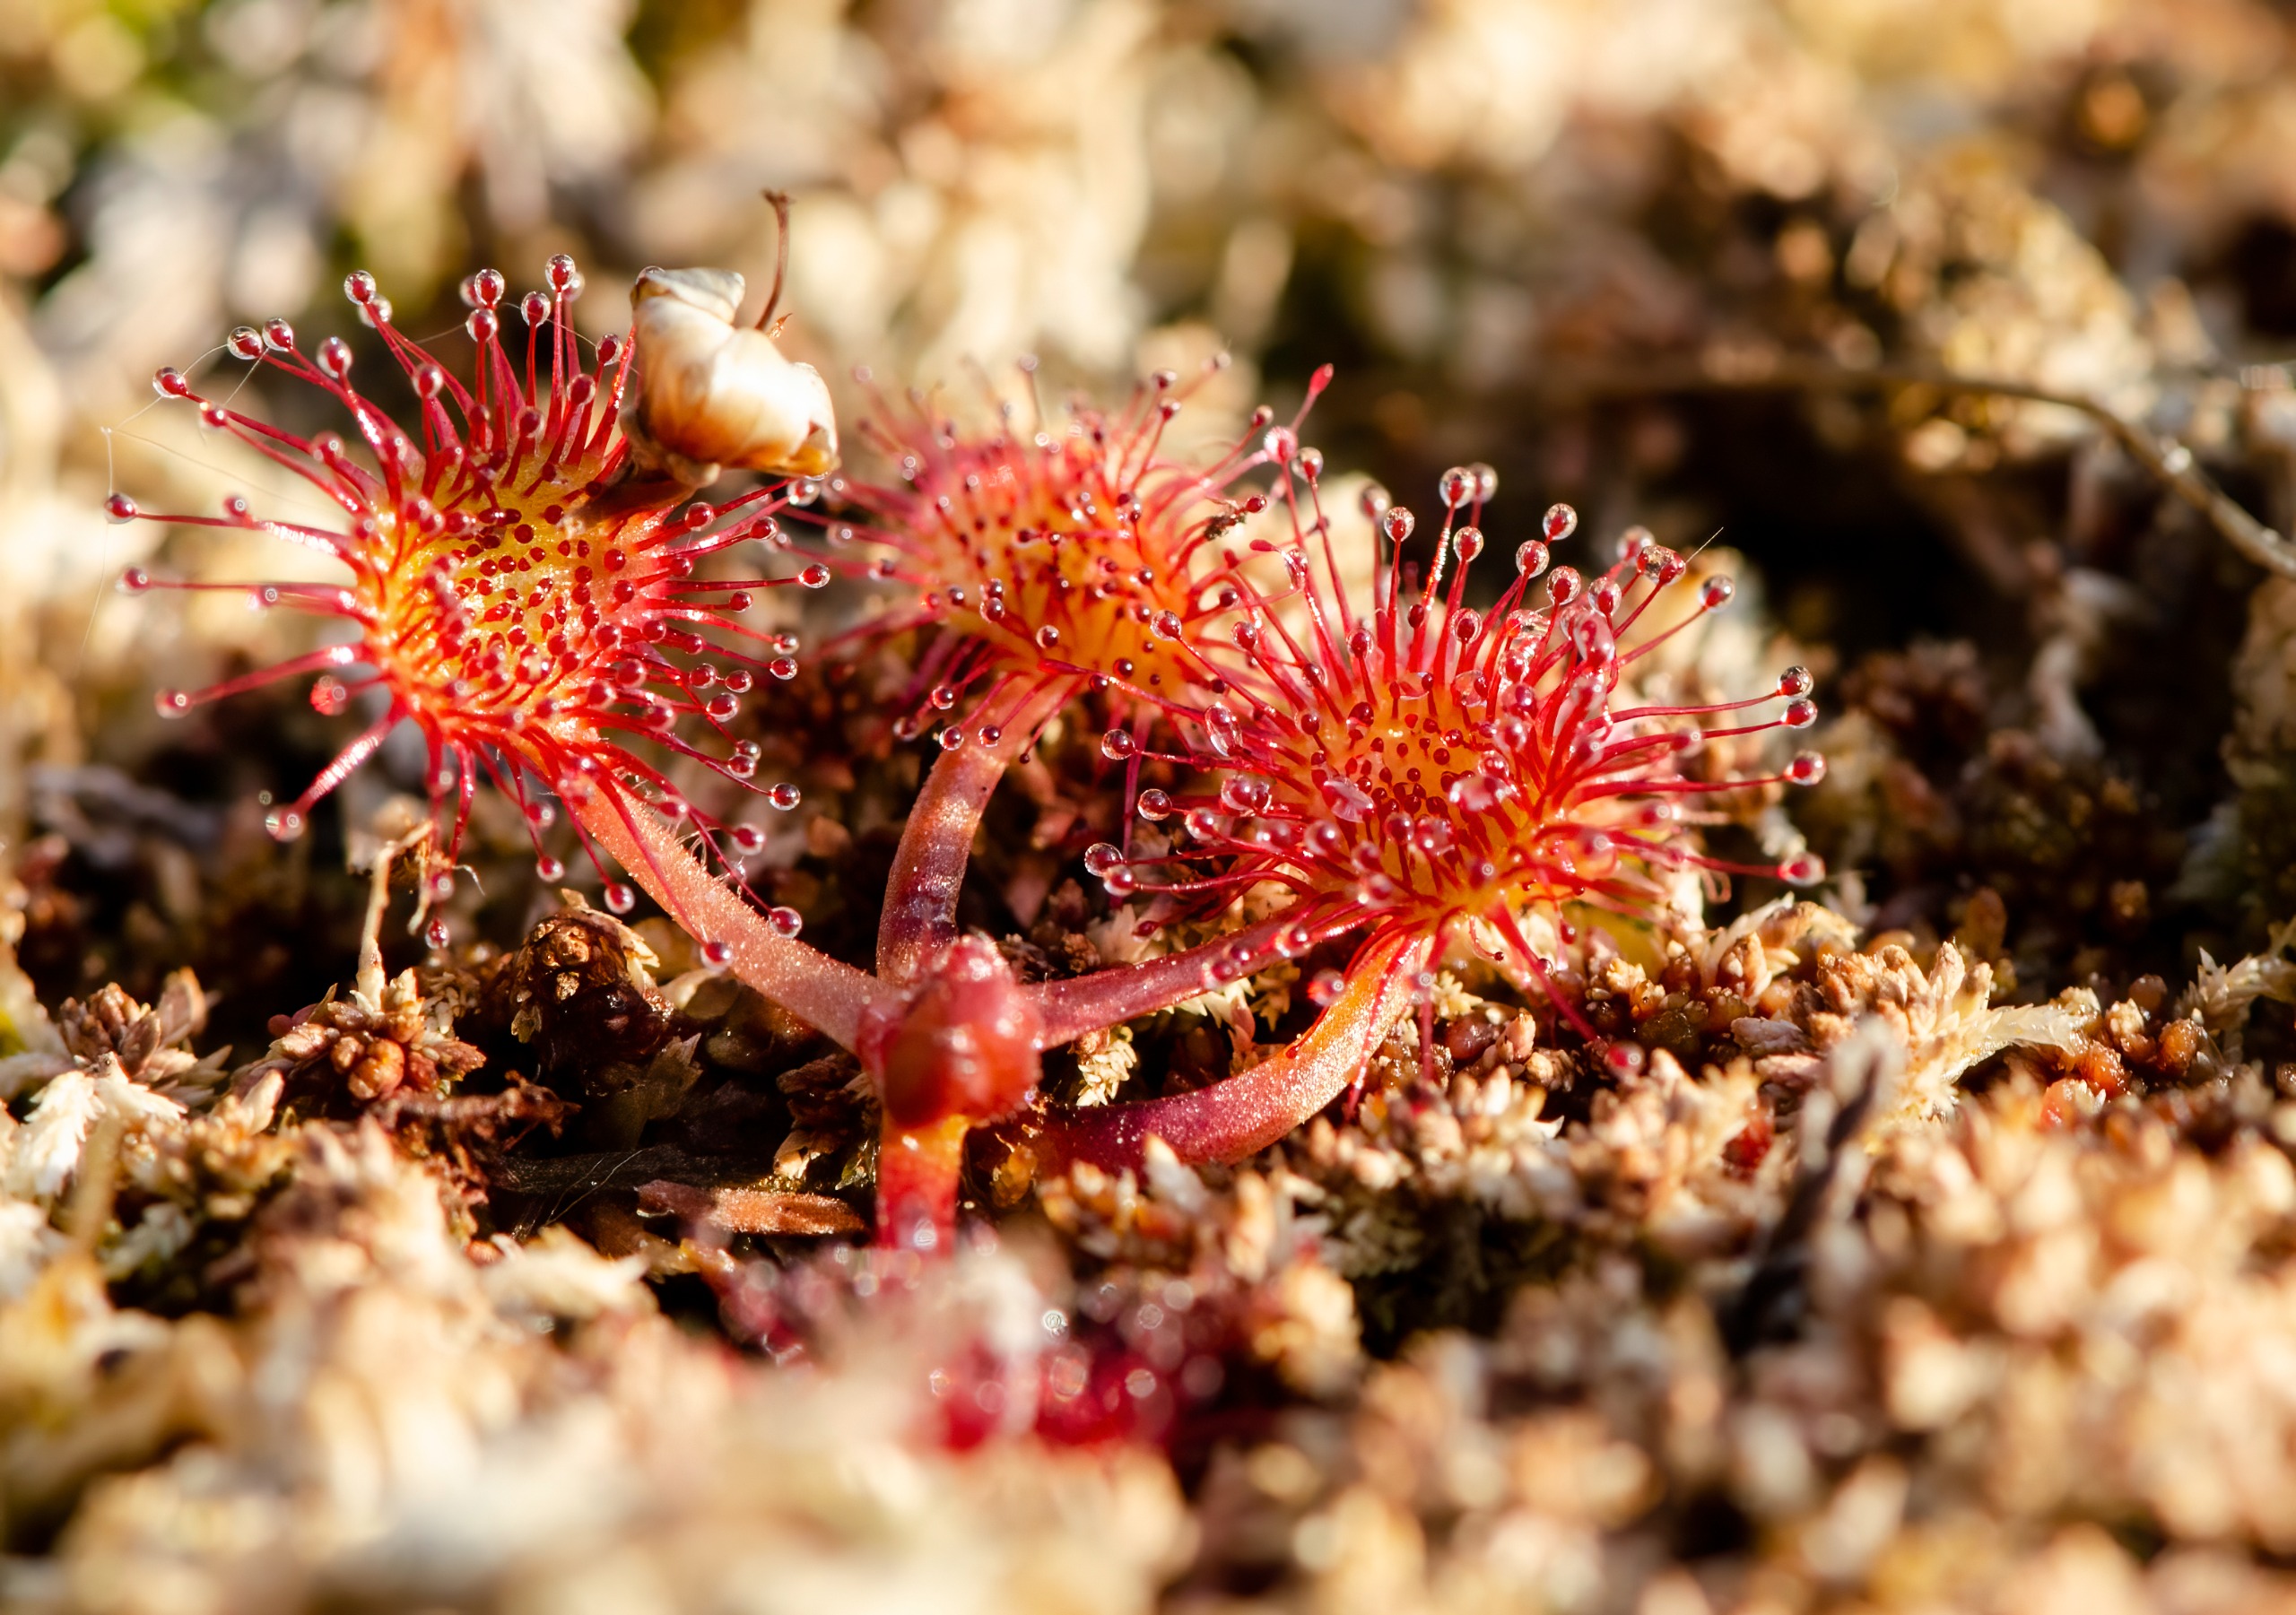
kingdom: Plantae
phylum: Tracheophyta
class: Magnoliopsida
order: Caryophyllales
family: Droseraceae
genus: Drosera
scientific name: Drosera rotundifolia
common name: Rundbladet soldug
